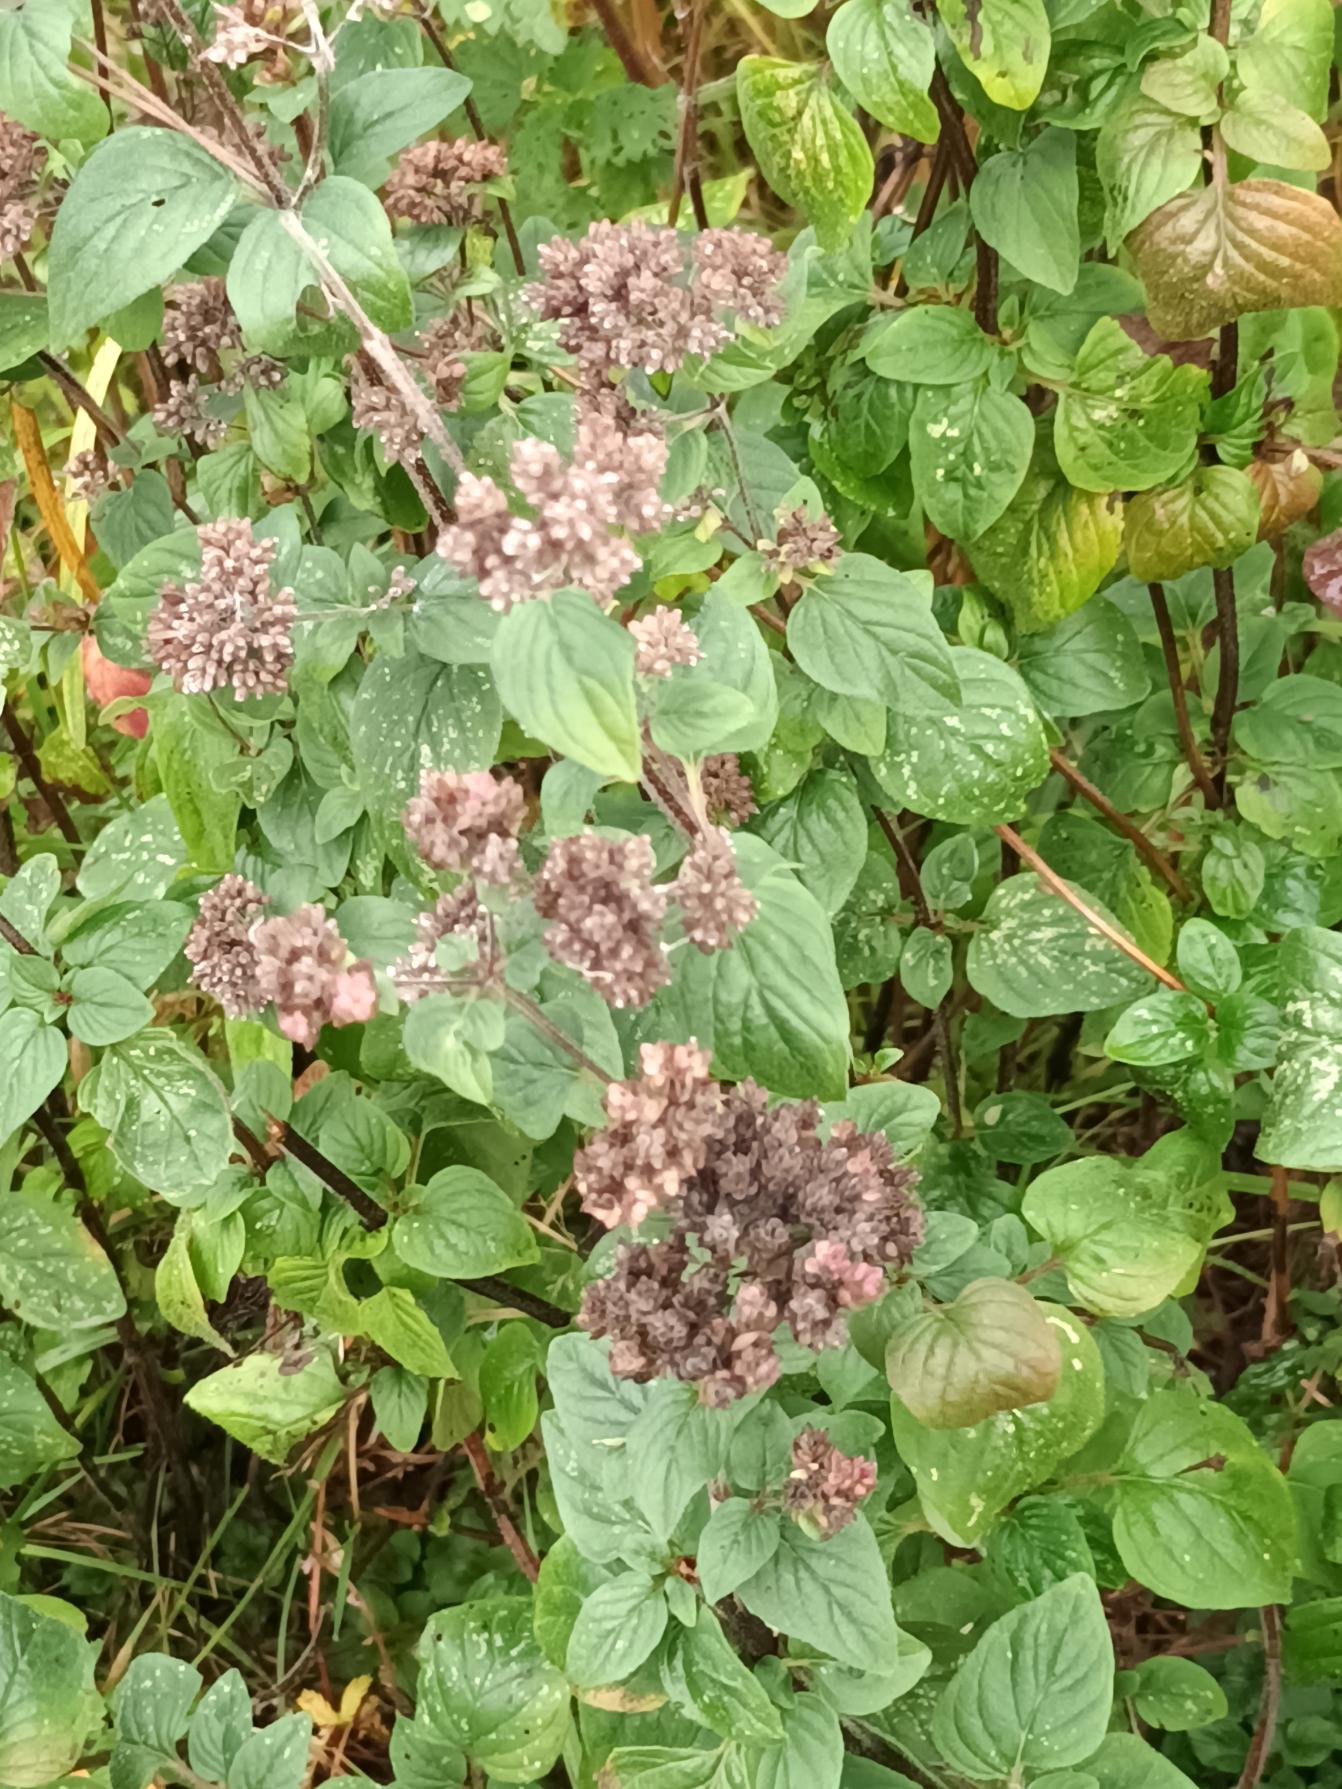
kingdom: Plantae
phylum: Tracheophyta
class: Magnoliopsida
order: Lamiales
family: Lamiaceae
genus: Origanum
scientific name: Origanum vulgare
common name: Merian
